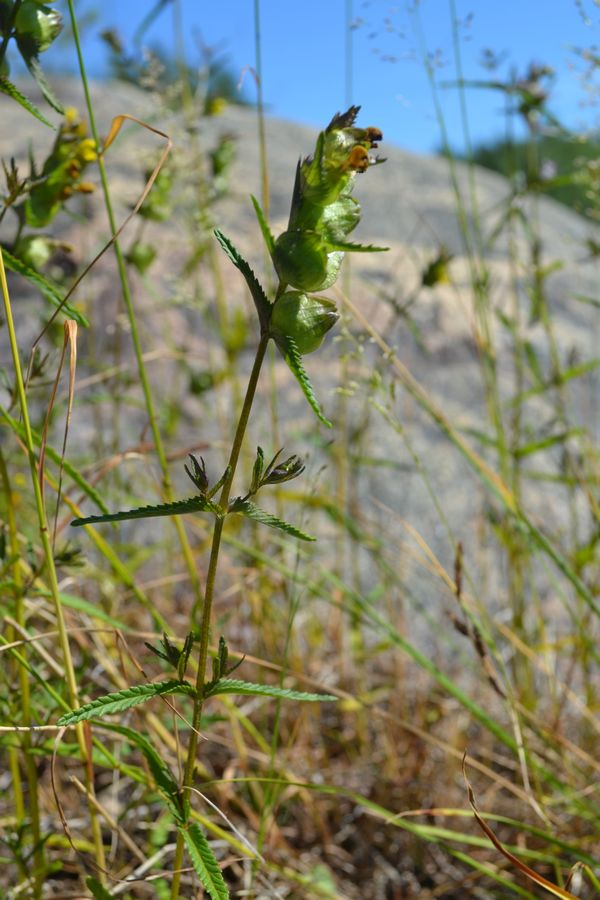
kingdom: Plantae
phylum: Tracheophyta
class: Magnoliopsida
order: Lamiales
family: Orobanchaceae
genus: Rhinanthus
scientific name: Rhinanthus minor
